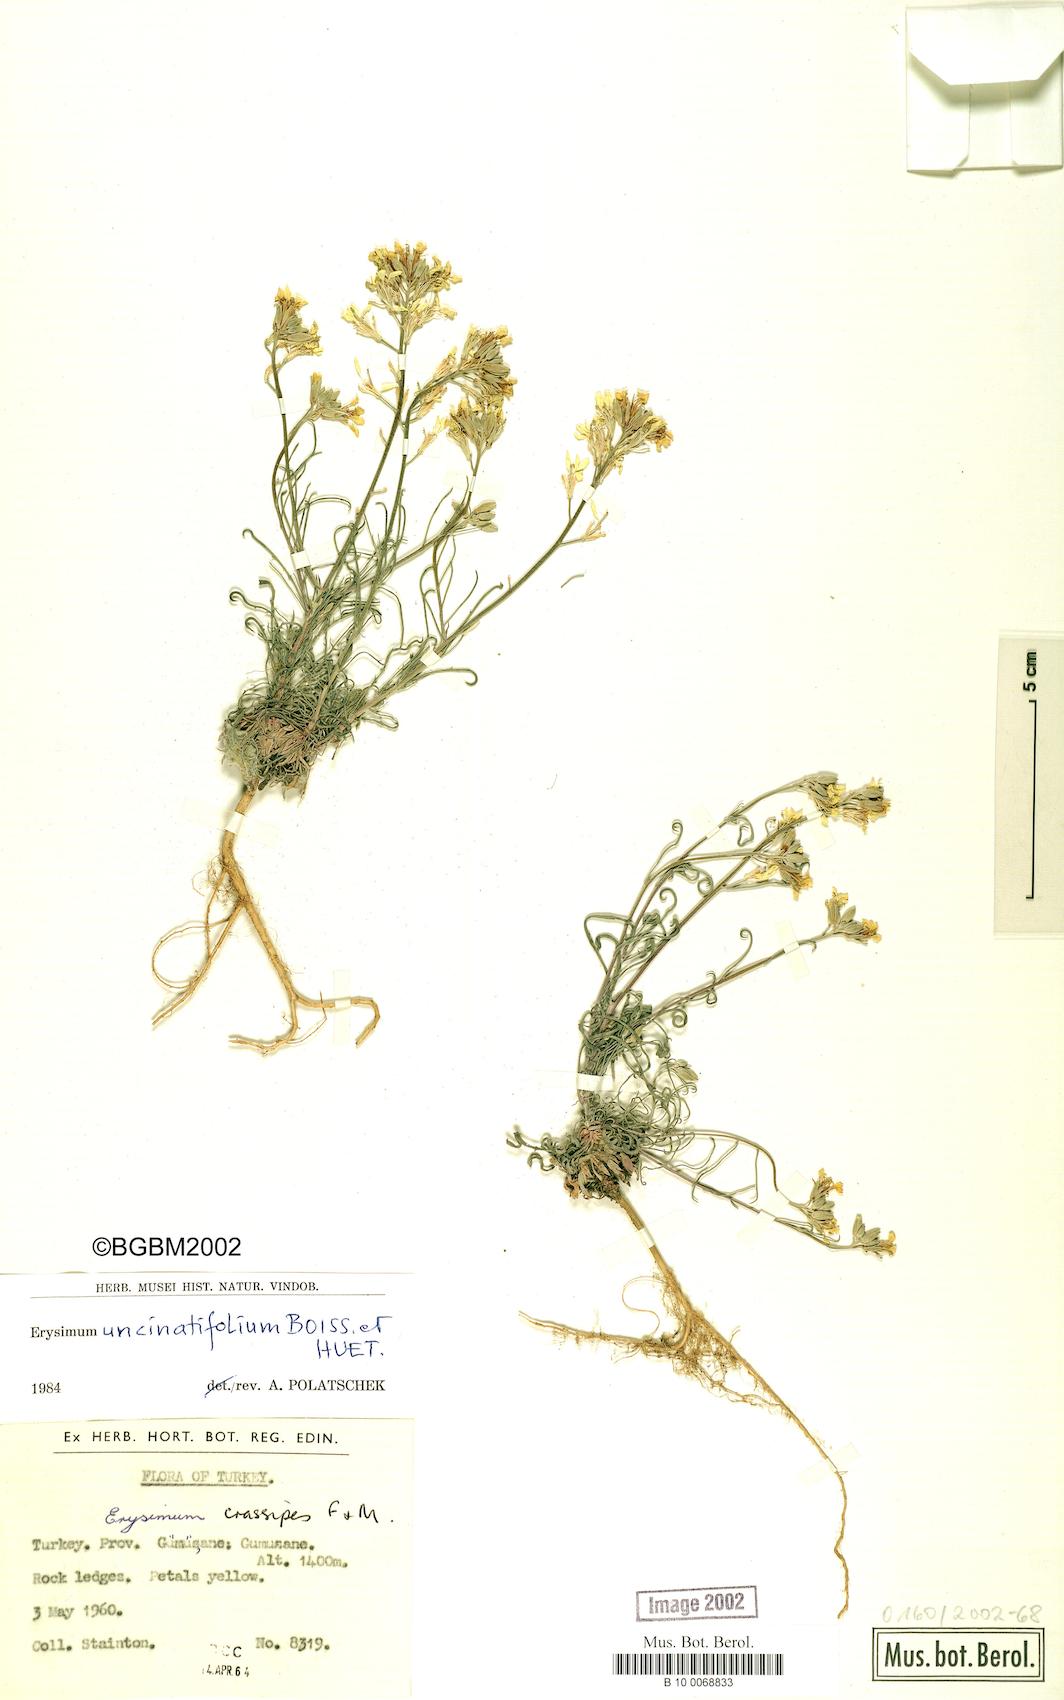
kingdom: Plantae
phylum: Tracheophyta
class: Magnoliopsida
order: Brassicales
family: Brassicaceae
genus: Erysimum
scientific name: Erysimum uncinatifolium
